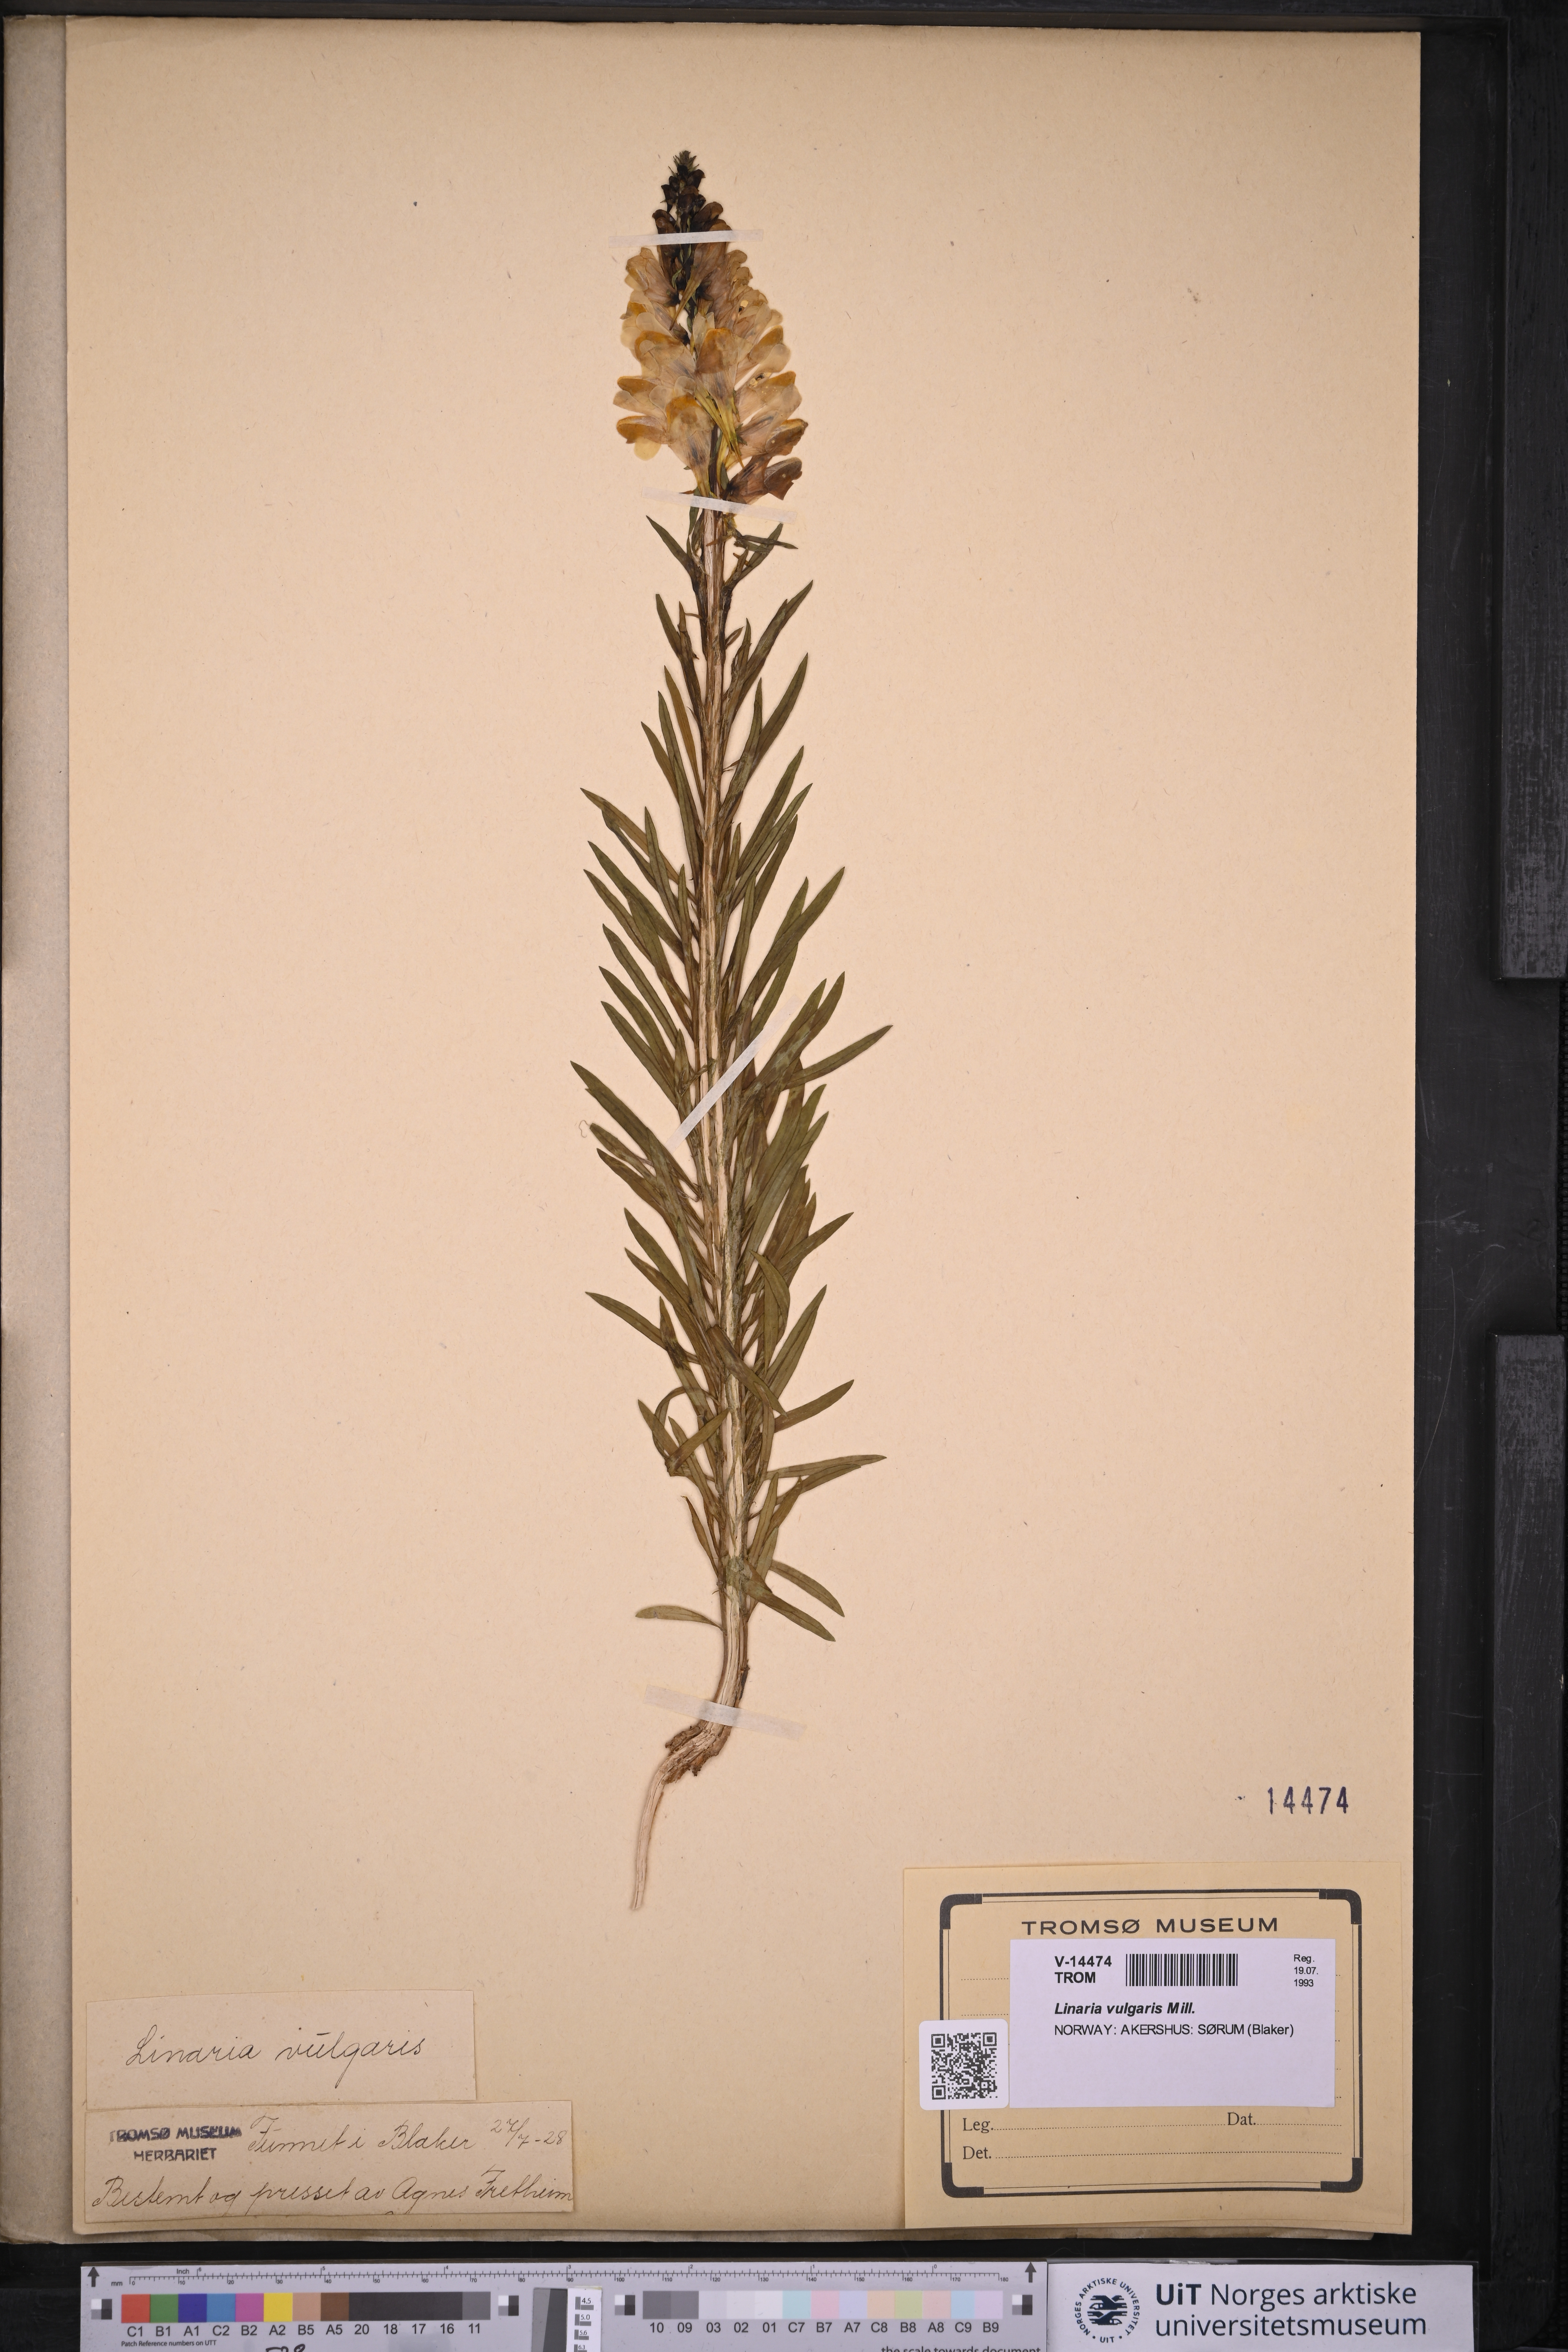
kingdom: Plantae
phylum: Tracheophyta
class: Magnoliopsida
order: Lamiales
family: Plantaginaceae
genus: Linaria
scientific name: Linaria vulgaris
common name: Butter and eggs
